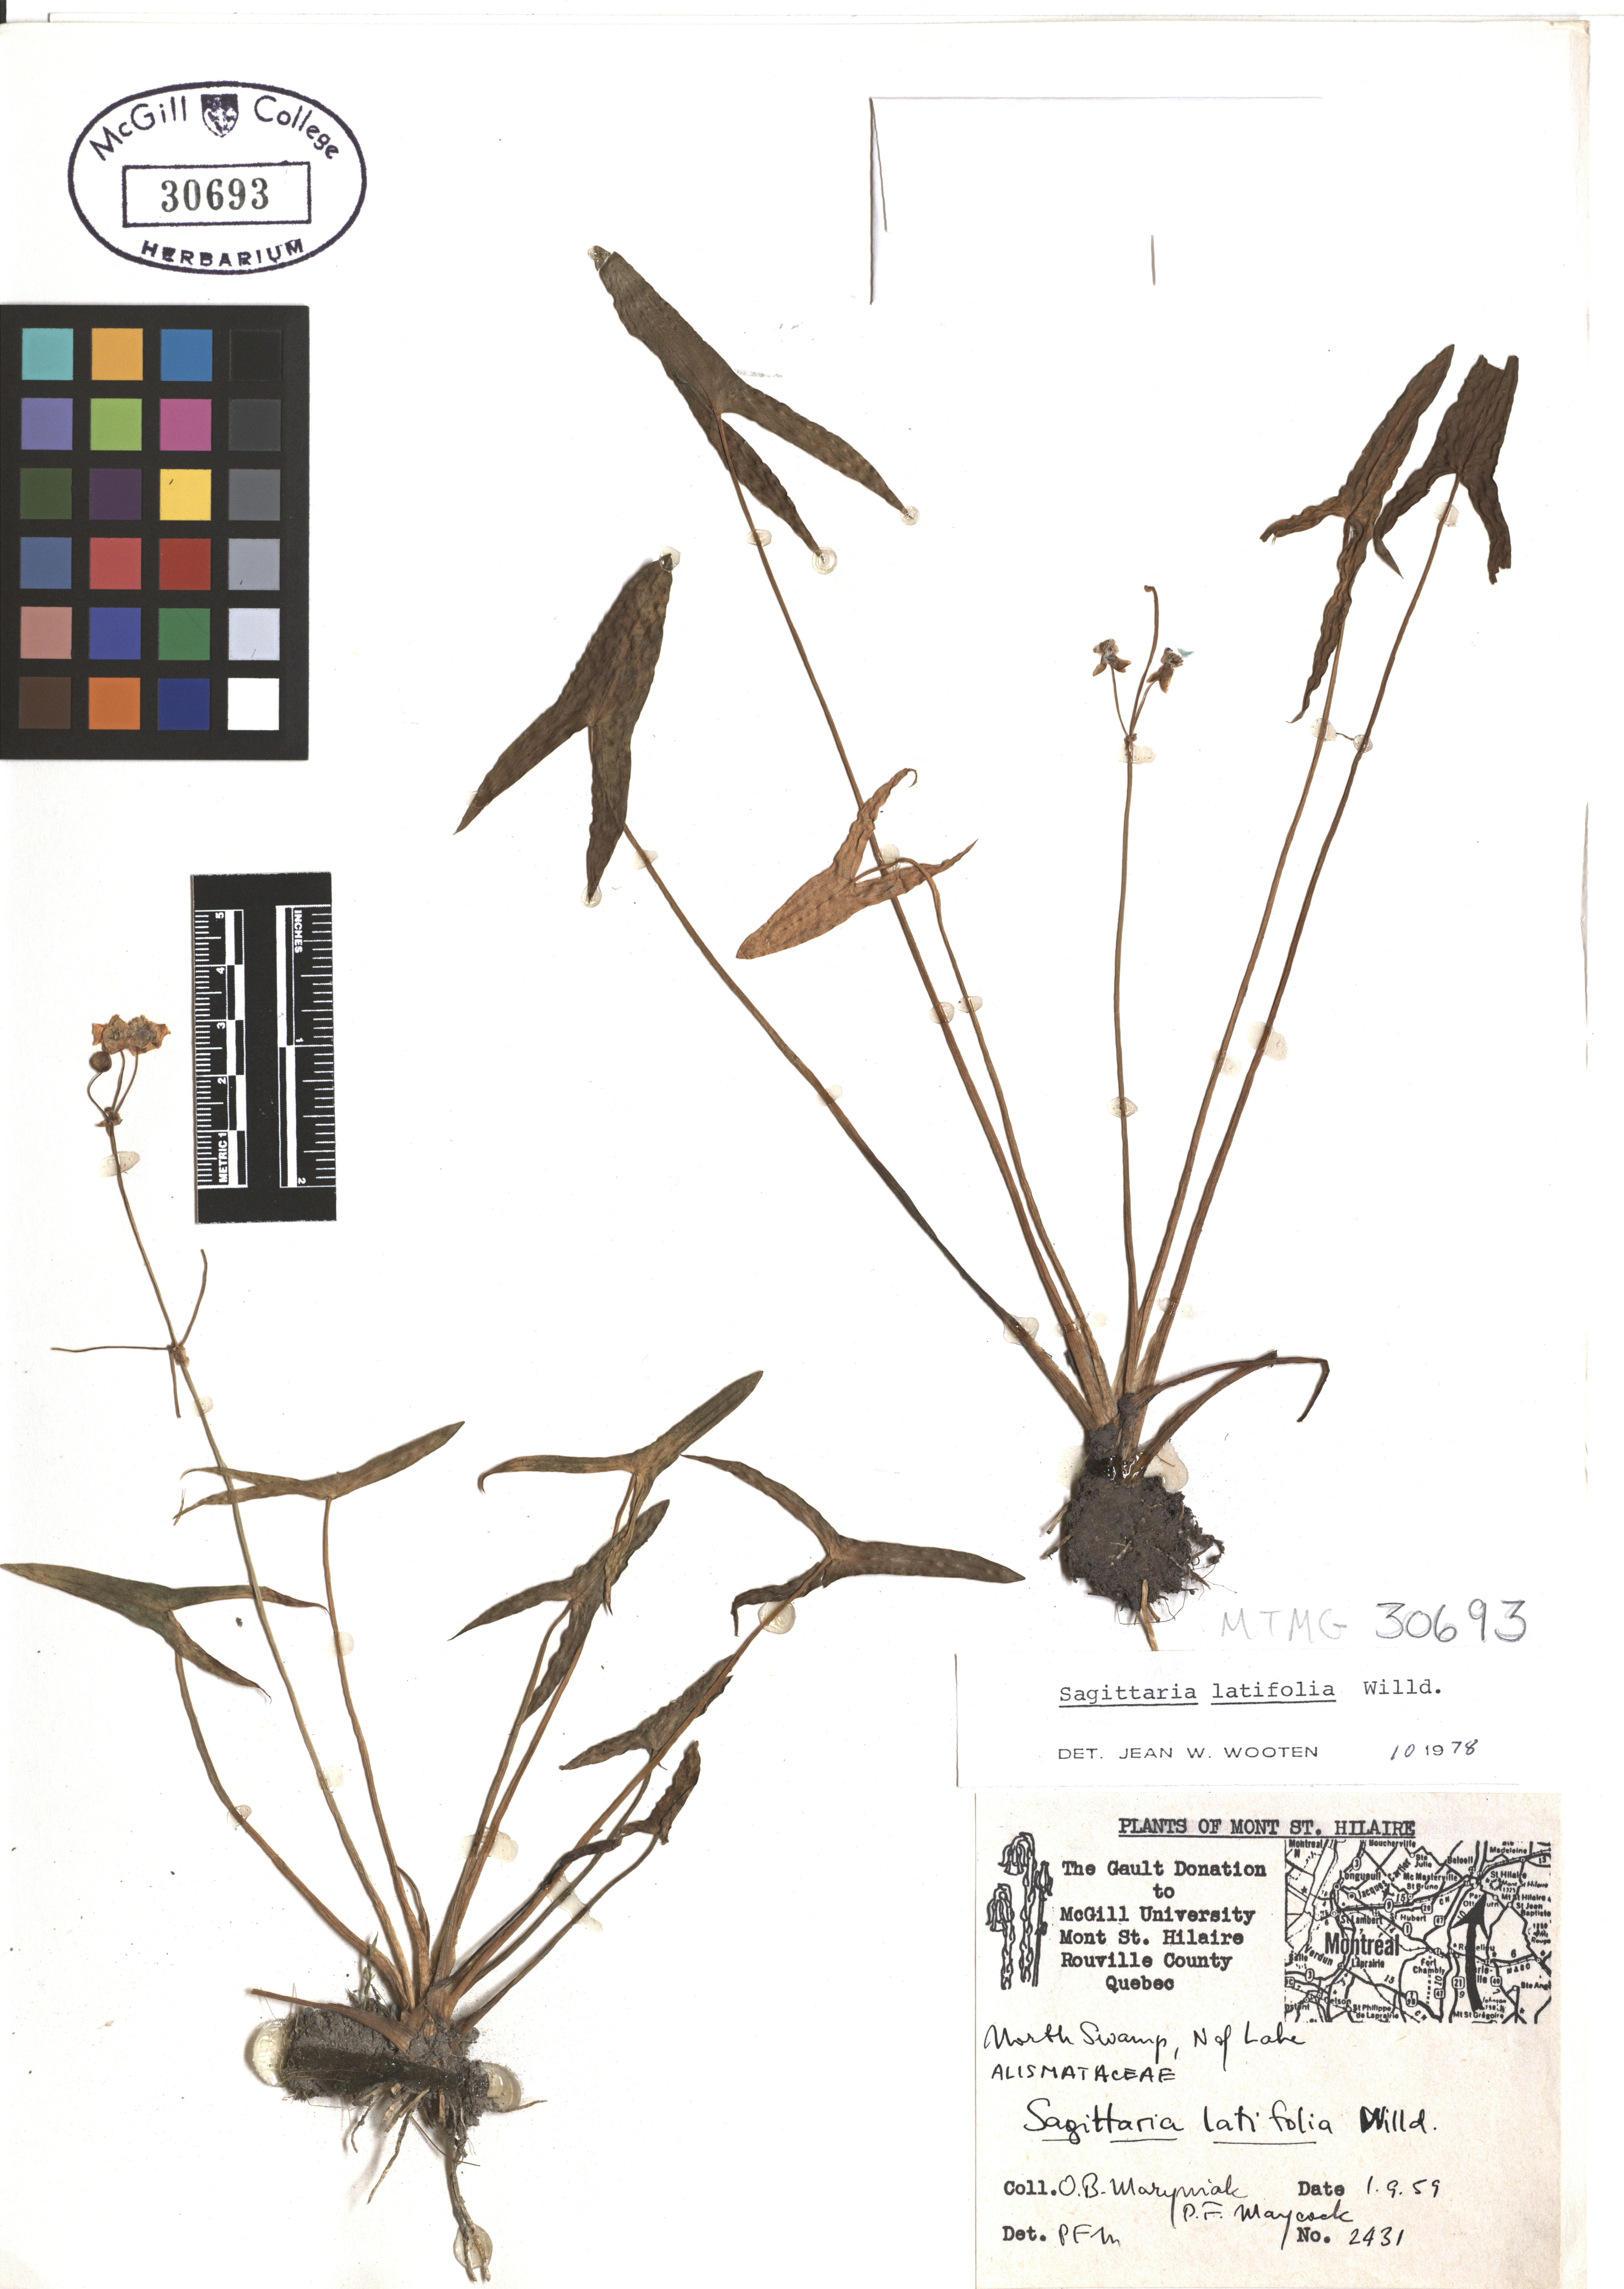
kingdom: Plantae
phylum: Tracheophyta
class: Liliopsida
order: Alismatales
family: Alismataceae
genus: Sagittaria
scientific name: Sagittaria latifolia
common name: Duck-potato
